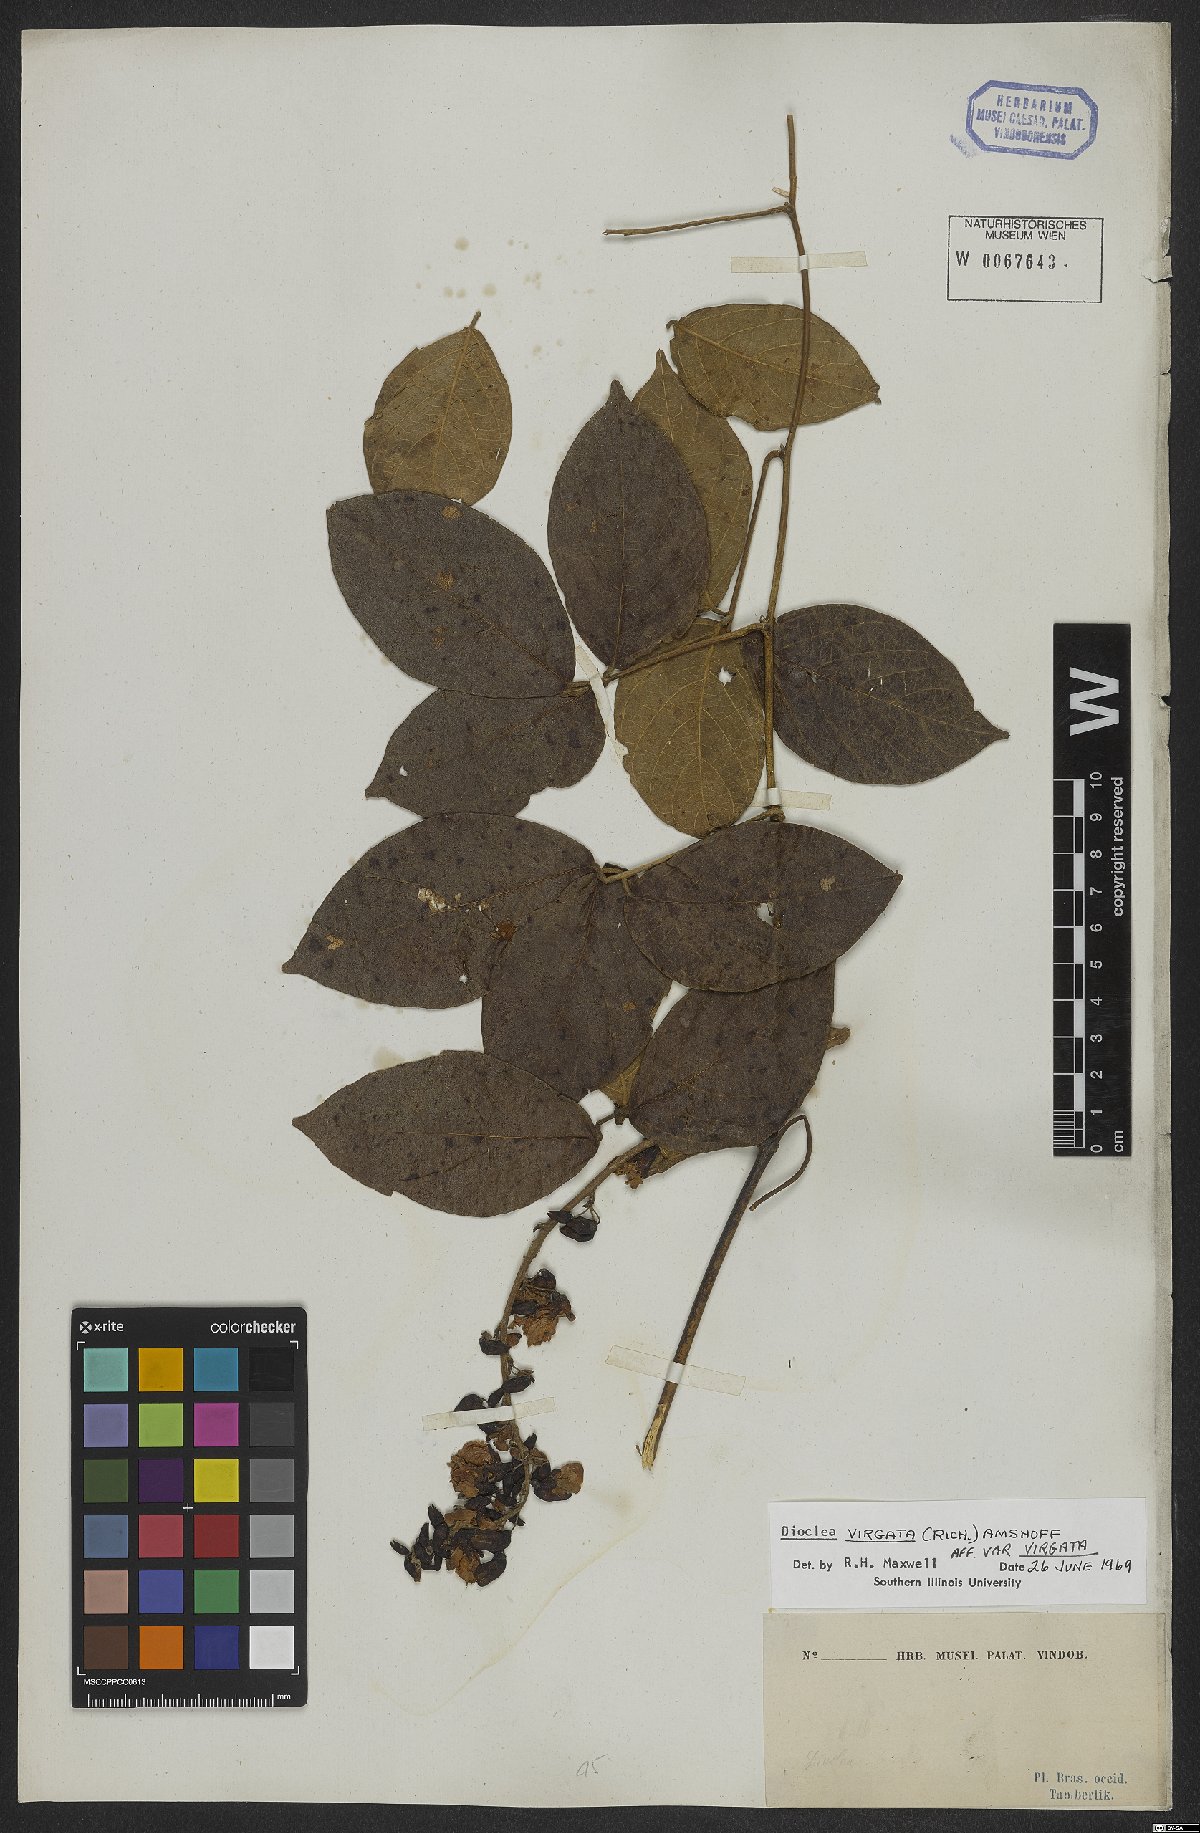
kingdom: Plantae
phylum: Tracheophyta
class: Magnoliopsida
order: Fabales
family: Fabaceae
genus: Dioclea
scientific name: Dioclea virgata
